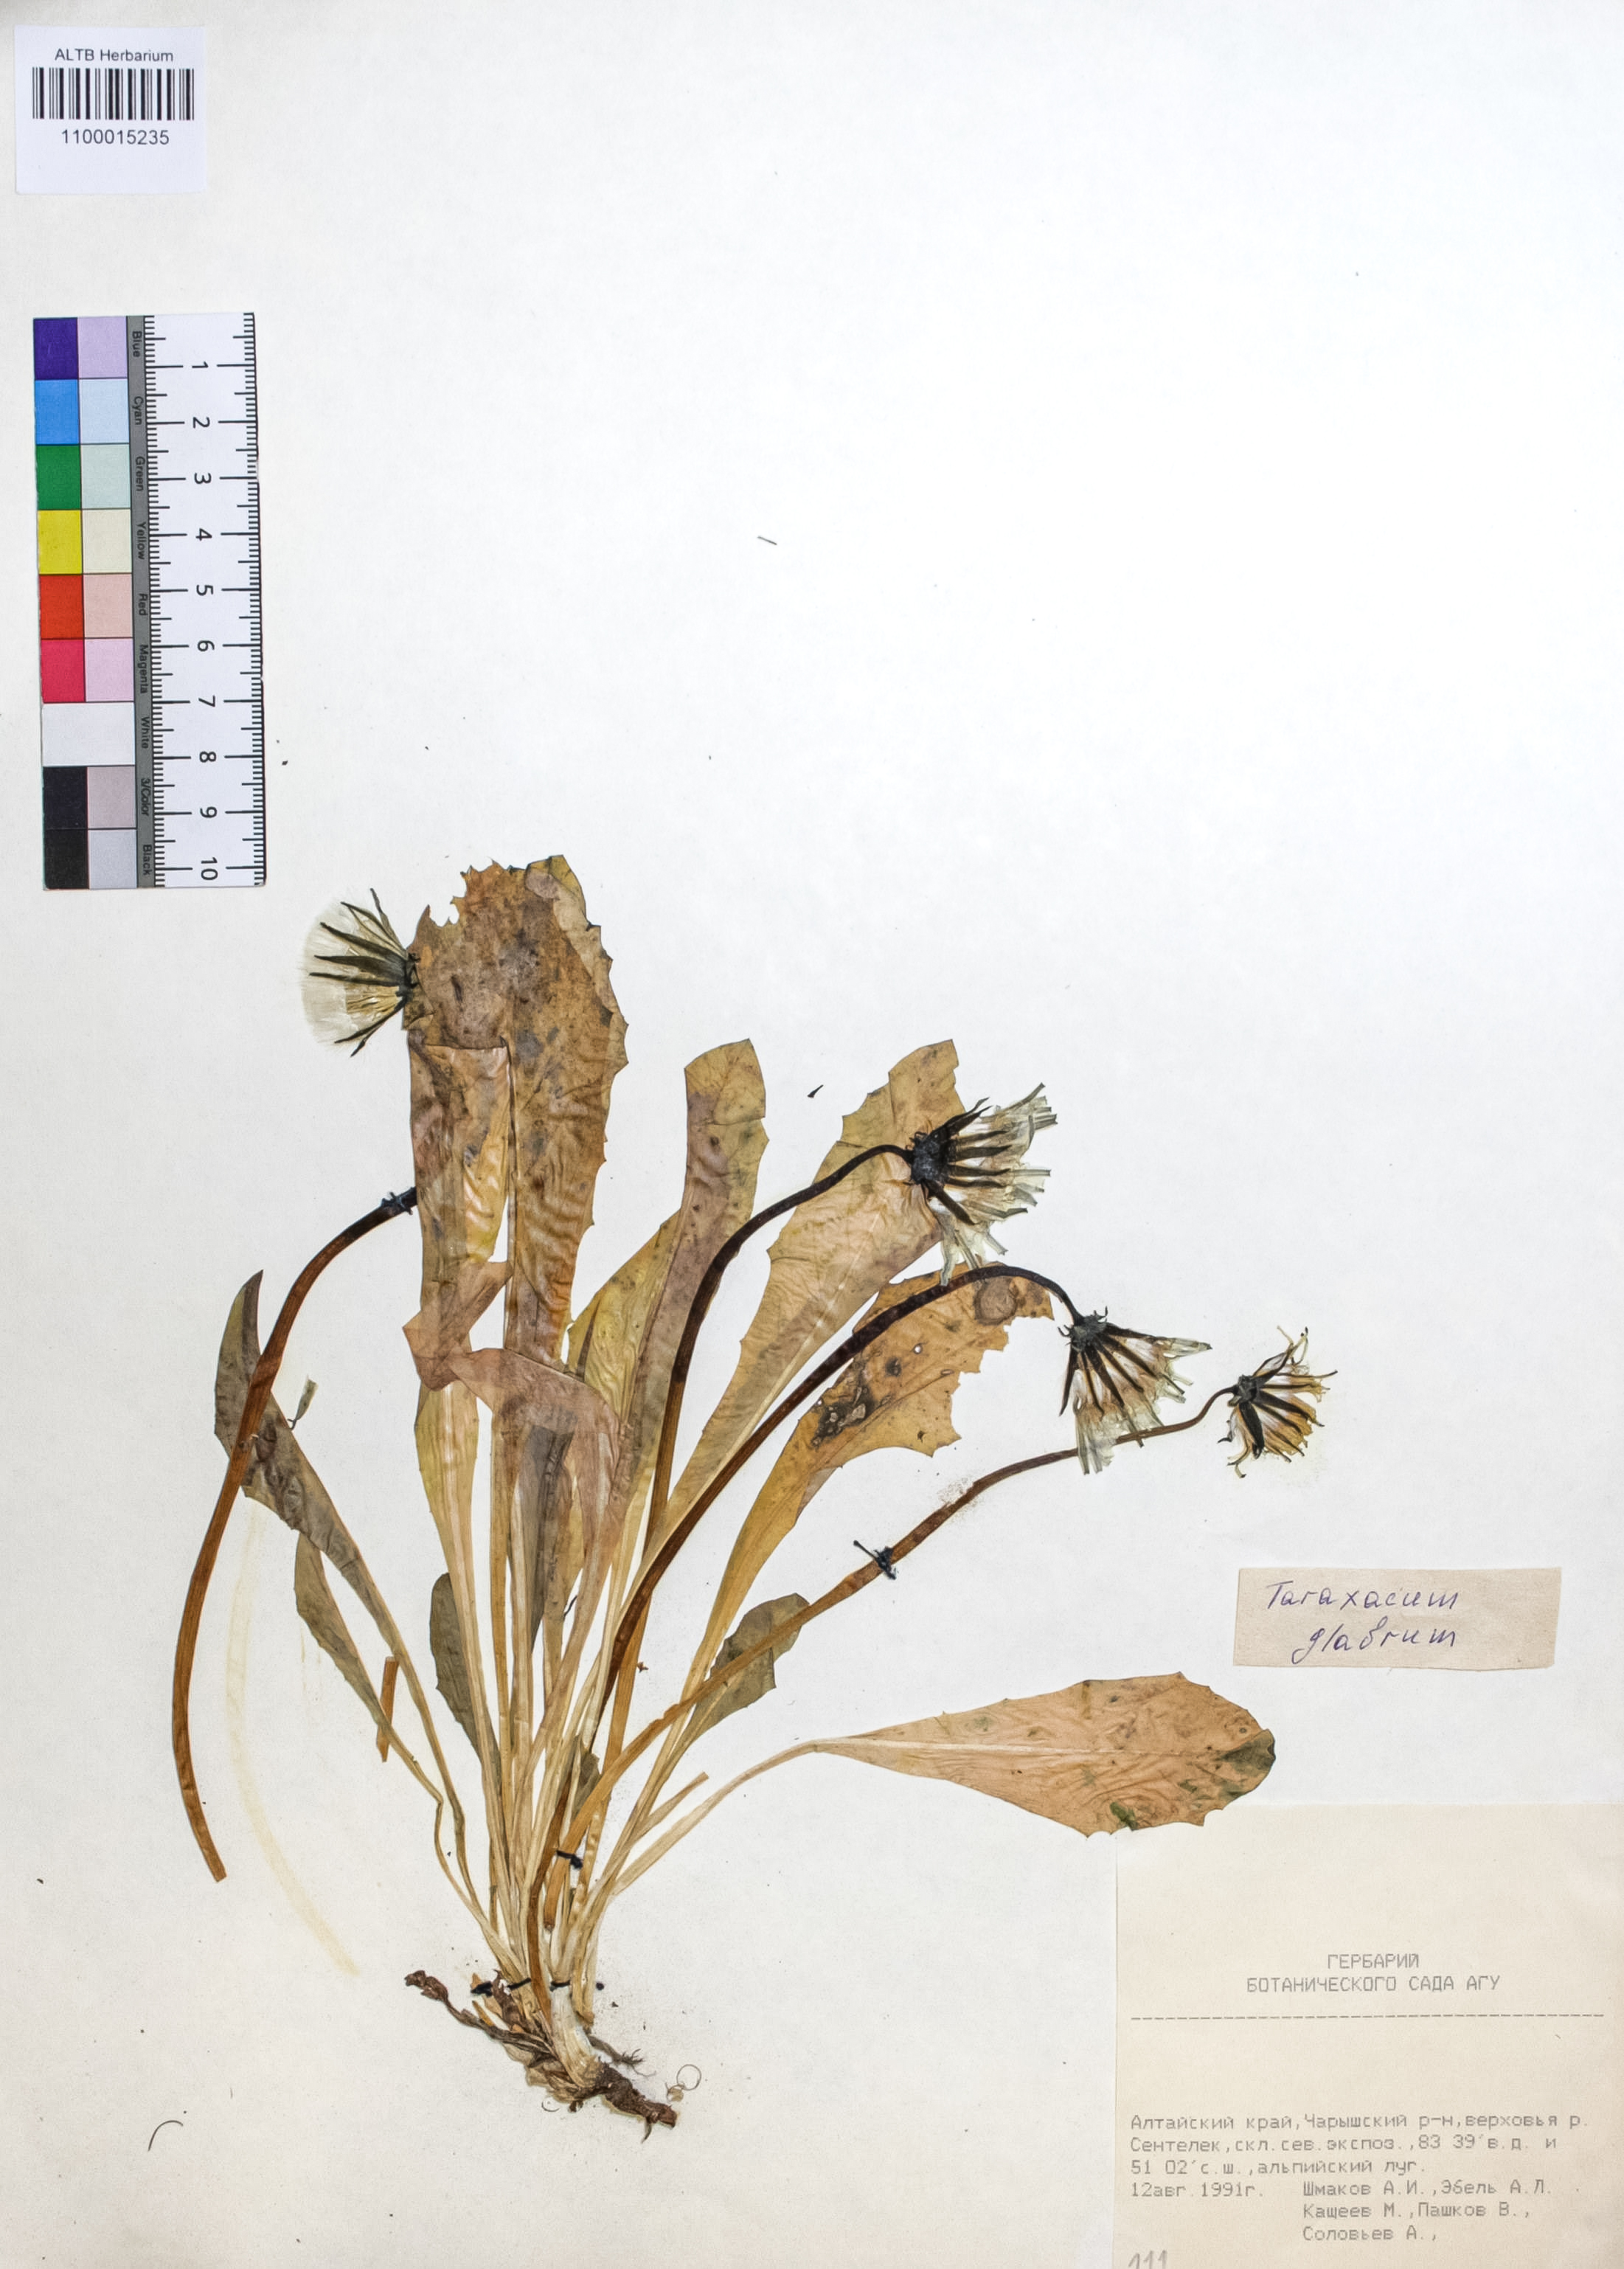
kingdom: Plantae
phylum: Tracheophyta
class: Magnoliopsida
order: Asterales
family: Asteraceae
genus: Taraxacum
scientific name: Taraxacum glabrum
